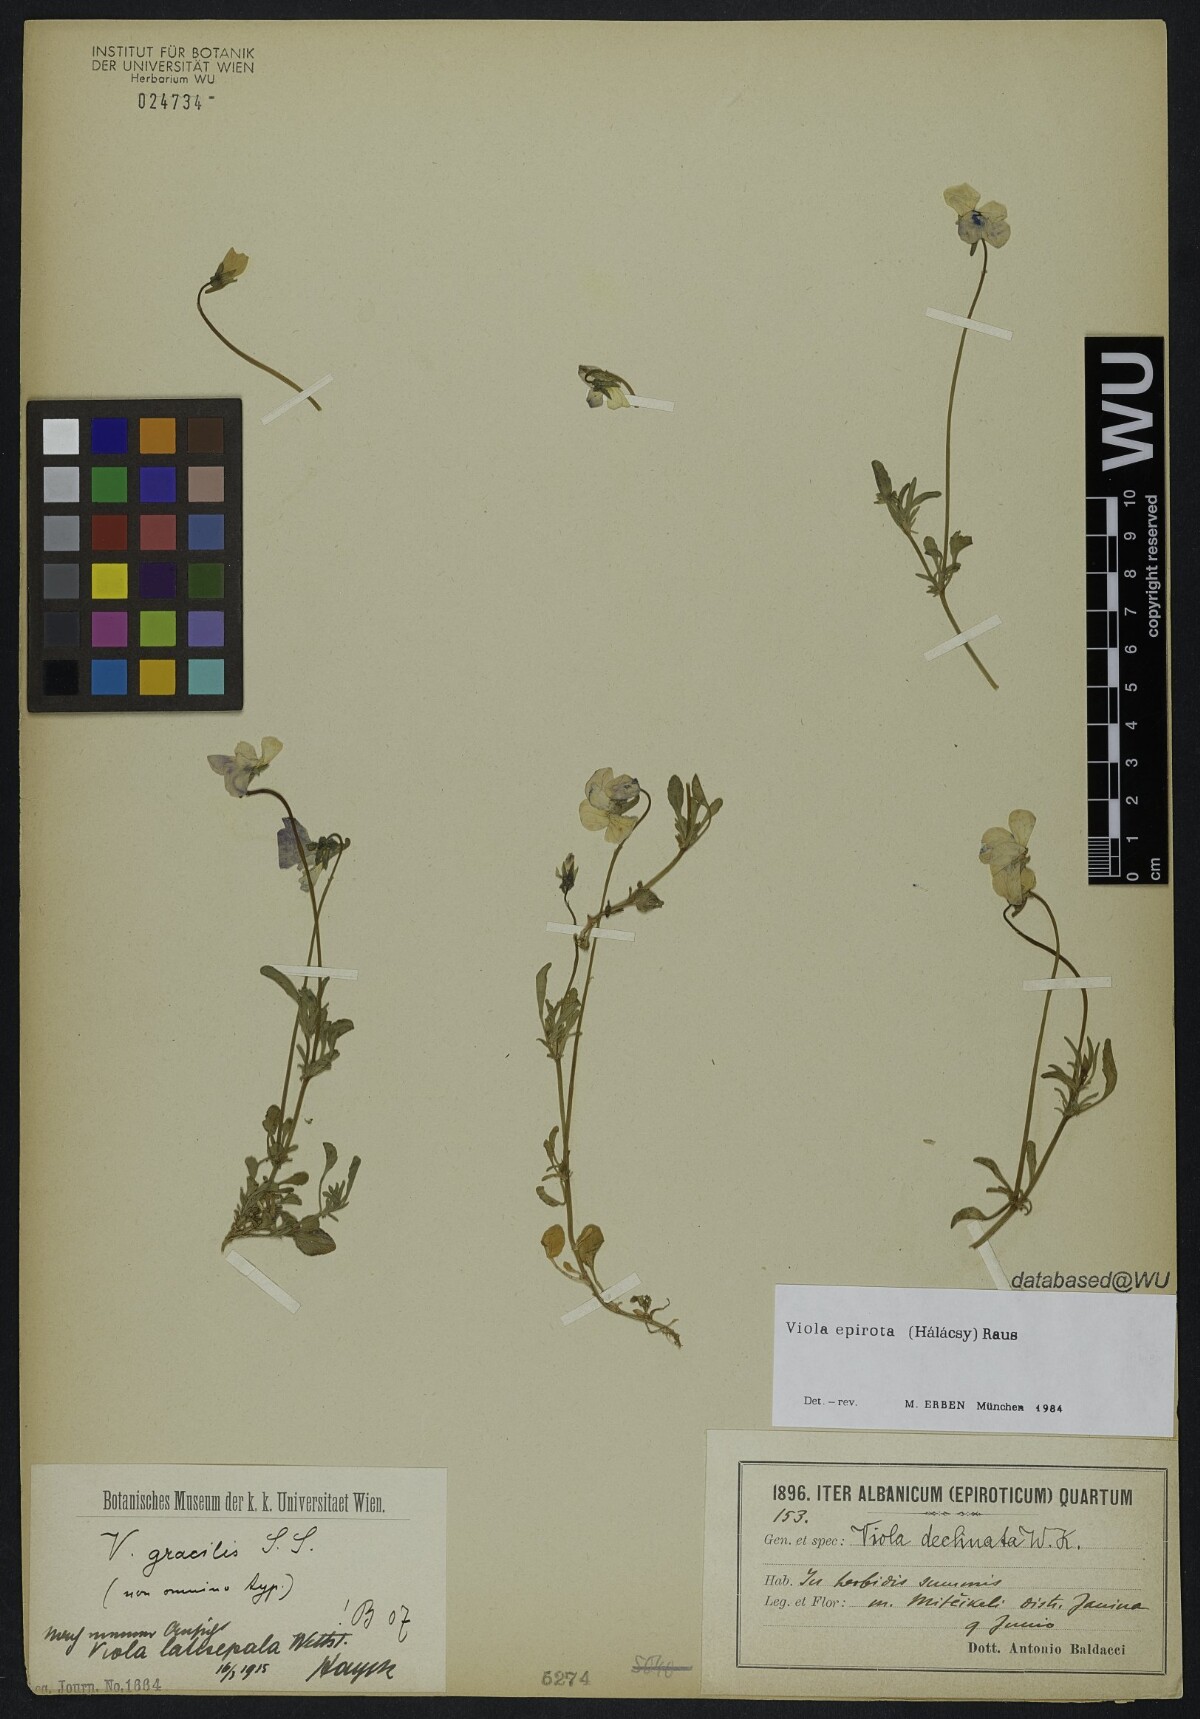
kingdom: Plantae
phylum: Tracheophyta
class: Magnoliopsida
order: Malpighiales
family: Violaceae
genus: Viola
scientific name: Viola epirota
